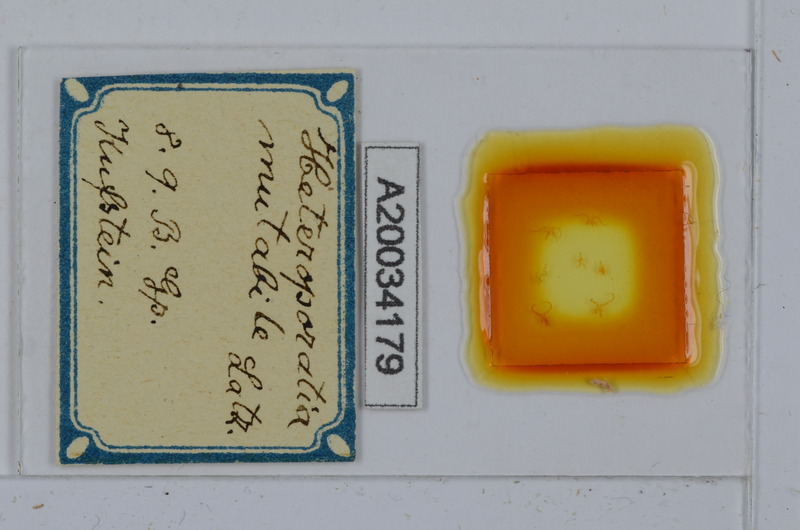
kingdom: Animalia
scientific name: Animalia
